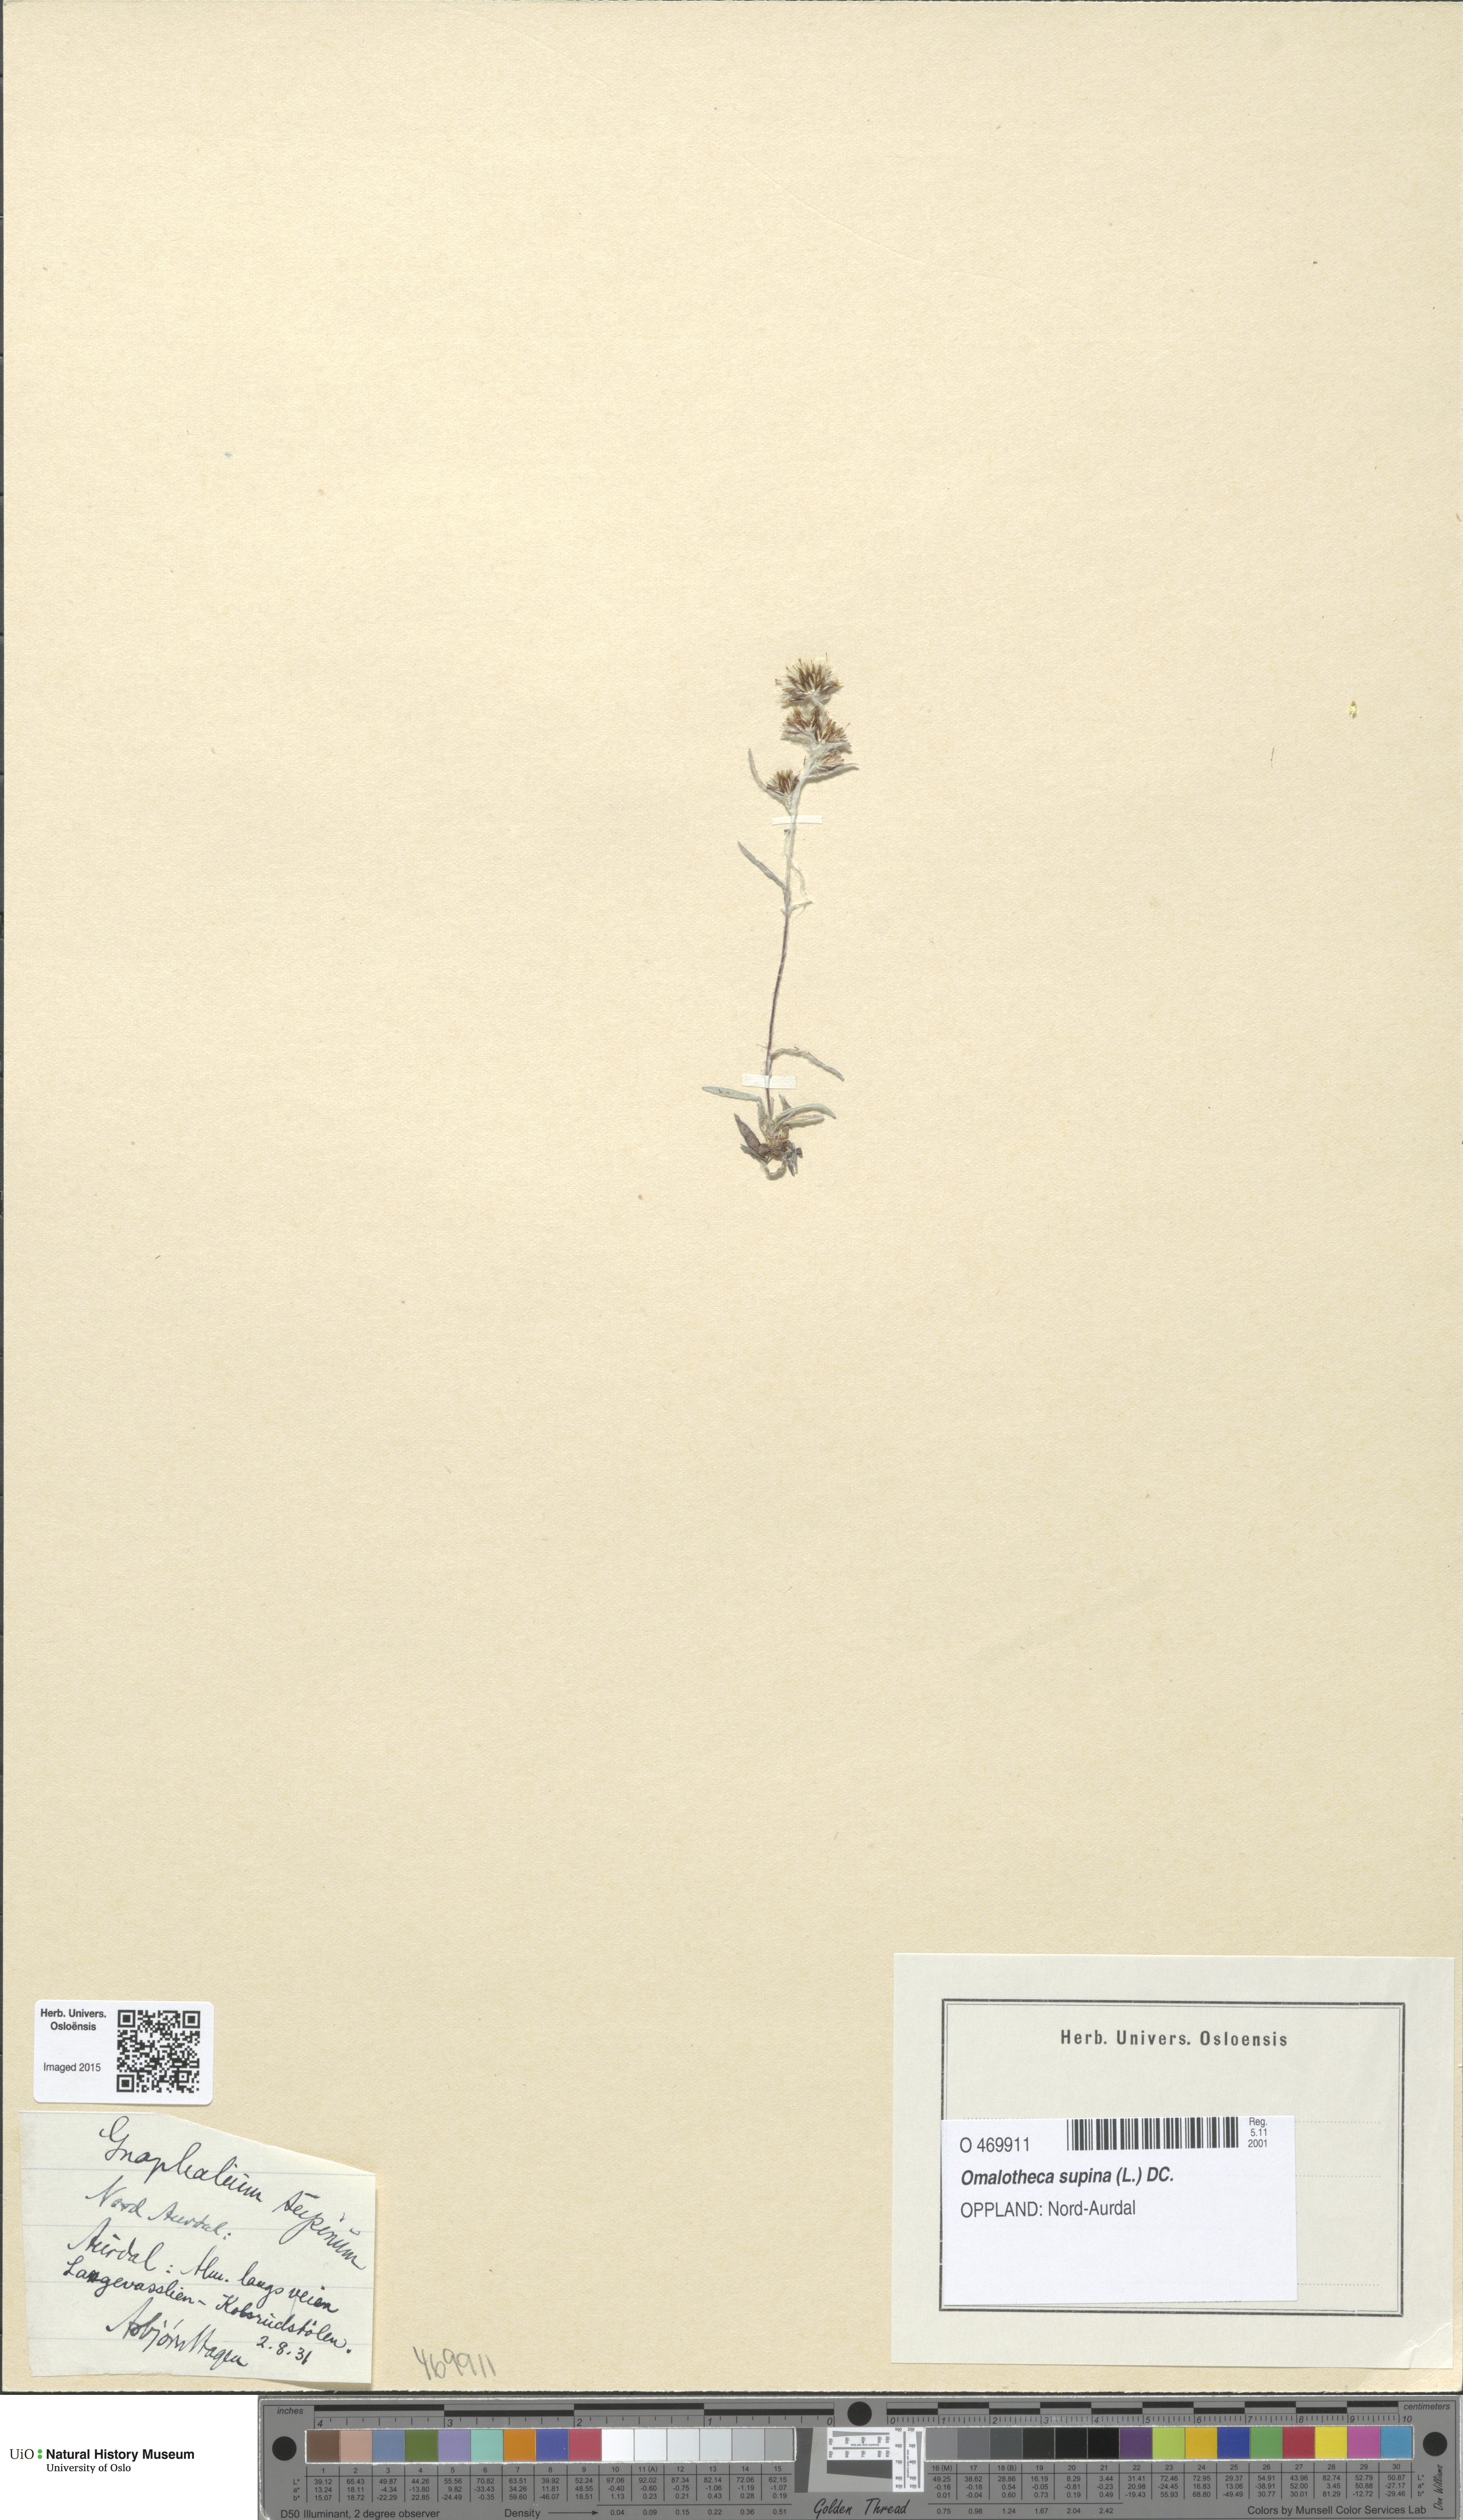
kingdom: Plantae
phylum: Tracheophyta
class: Magnoliopsida
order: Asterales
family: Asteraceae
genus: Omalotheca
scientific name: Omalotheca supina
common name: Alpine arctic-cudweed
